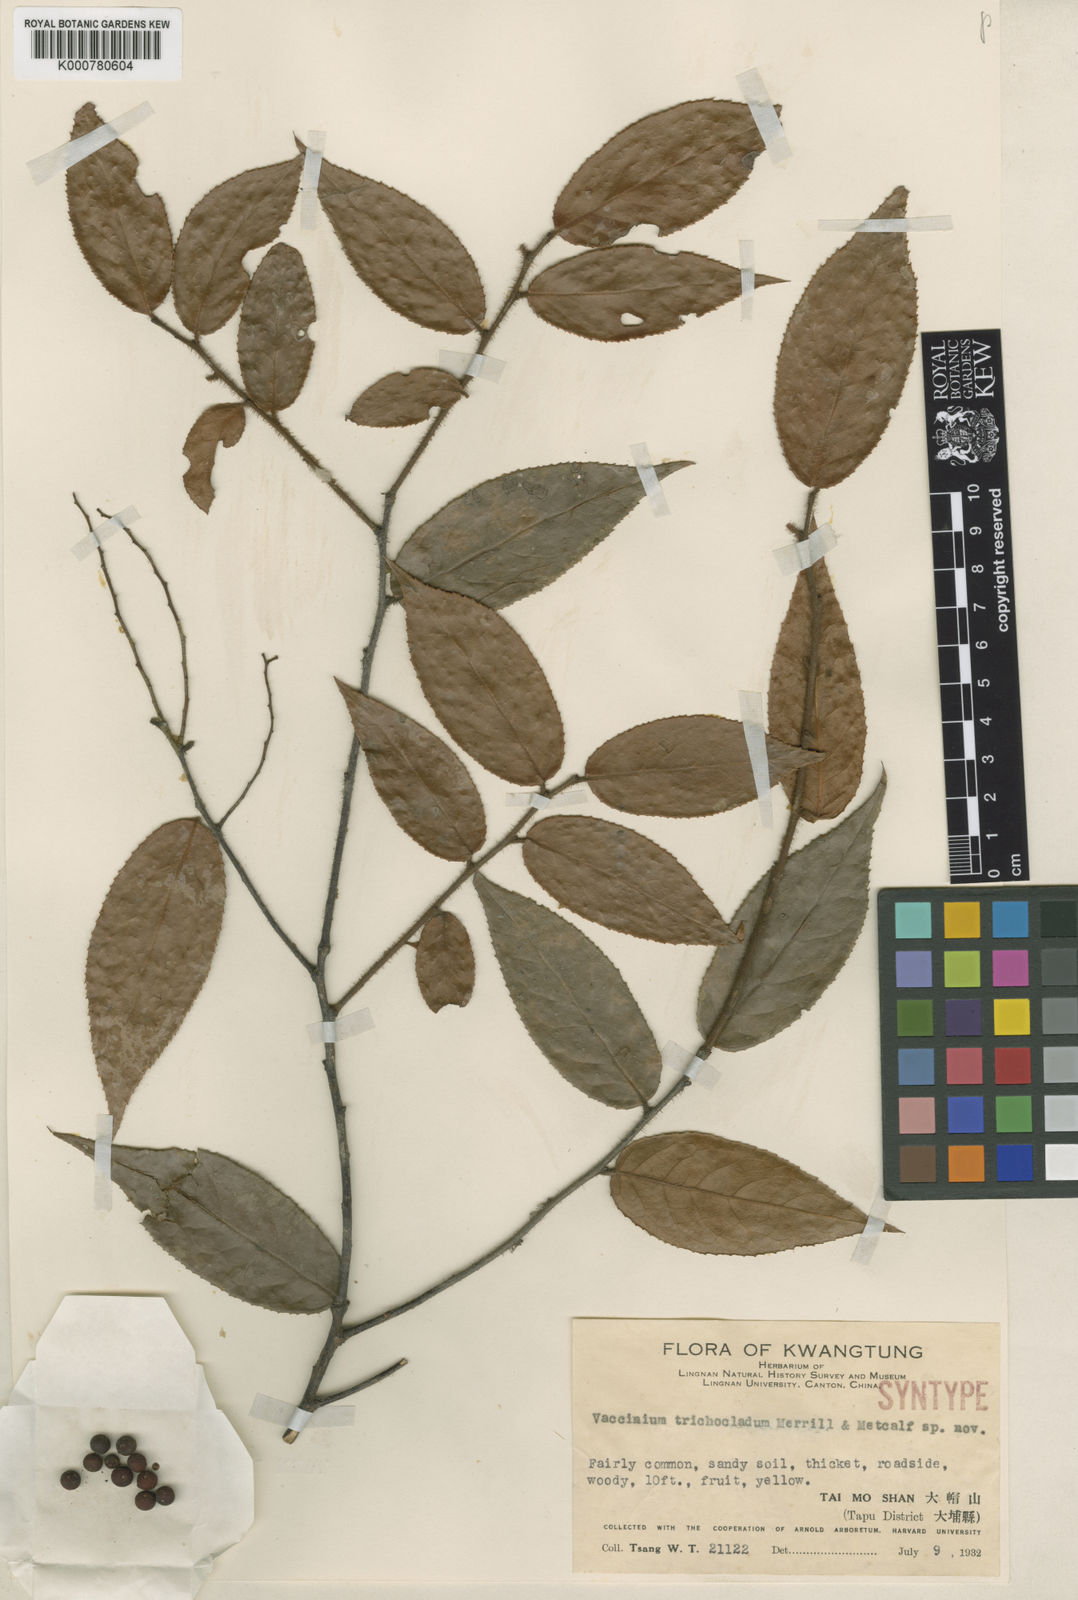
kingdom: Plantae
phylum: Tracheophyta
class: Magnoliopsida
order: Ericales
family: Ericaceae
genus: Vaccinium
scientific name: Vaccinium trichocladum
